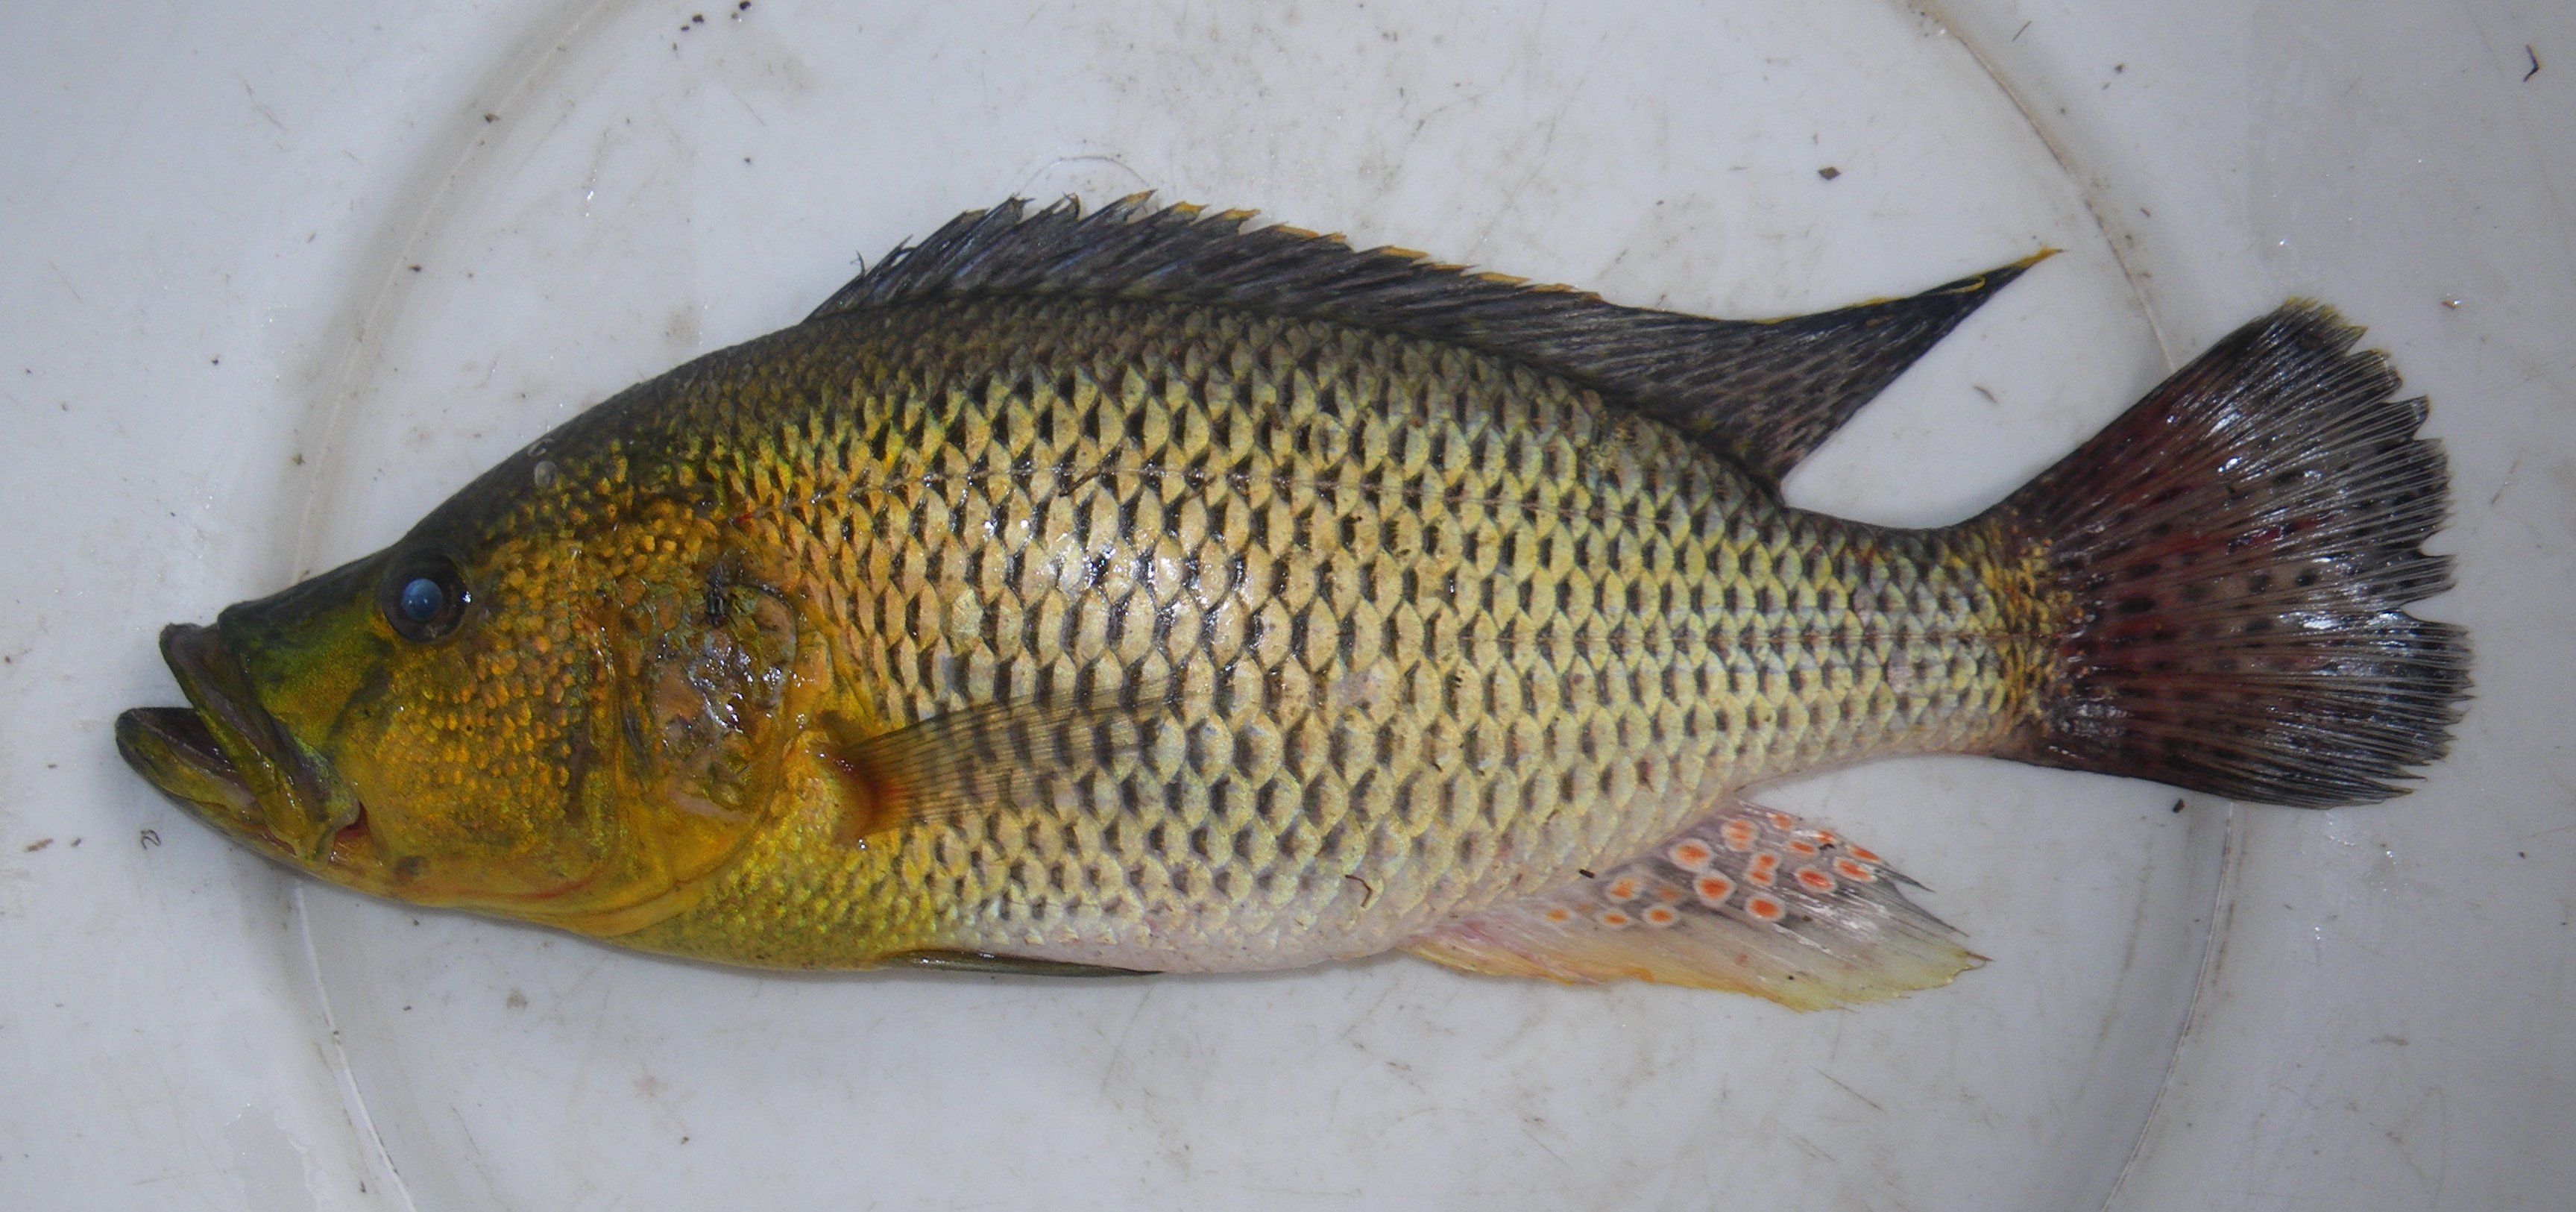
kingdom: Animalia
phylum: Chordata
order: Perciformes
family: Cichlidae
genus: Serranochromis
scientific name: Serranochromis
